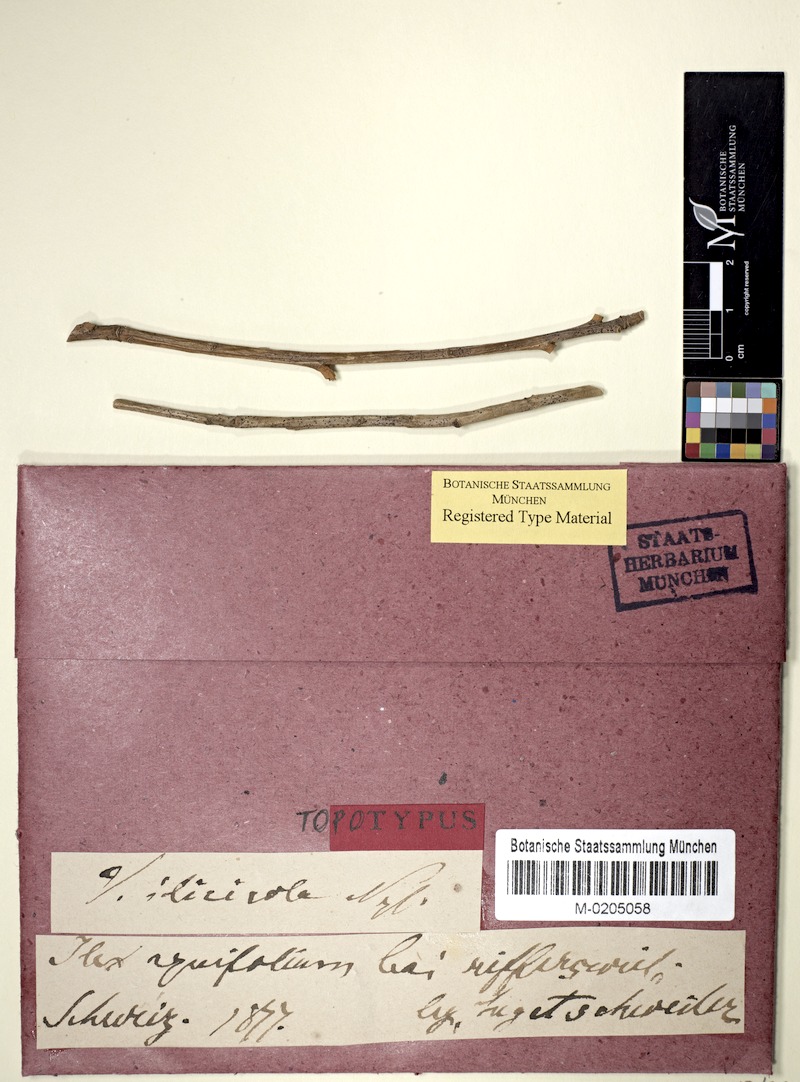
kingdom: Fungi
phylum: Ascomycota
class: Dothideomycetes
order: Pleosporales
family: Arthopyreniaceae
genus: Arthopyrenia
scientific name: Arthopyrenia ilicicola
